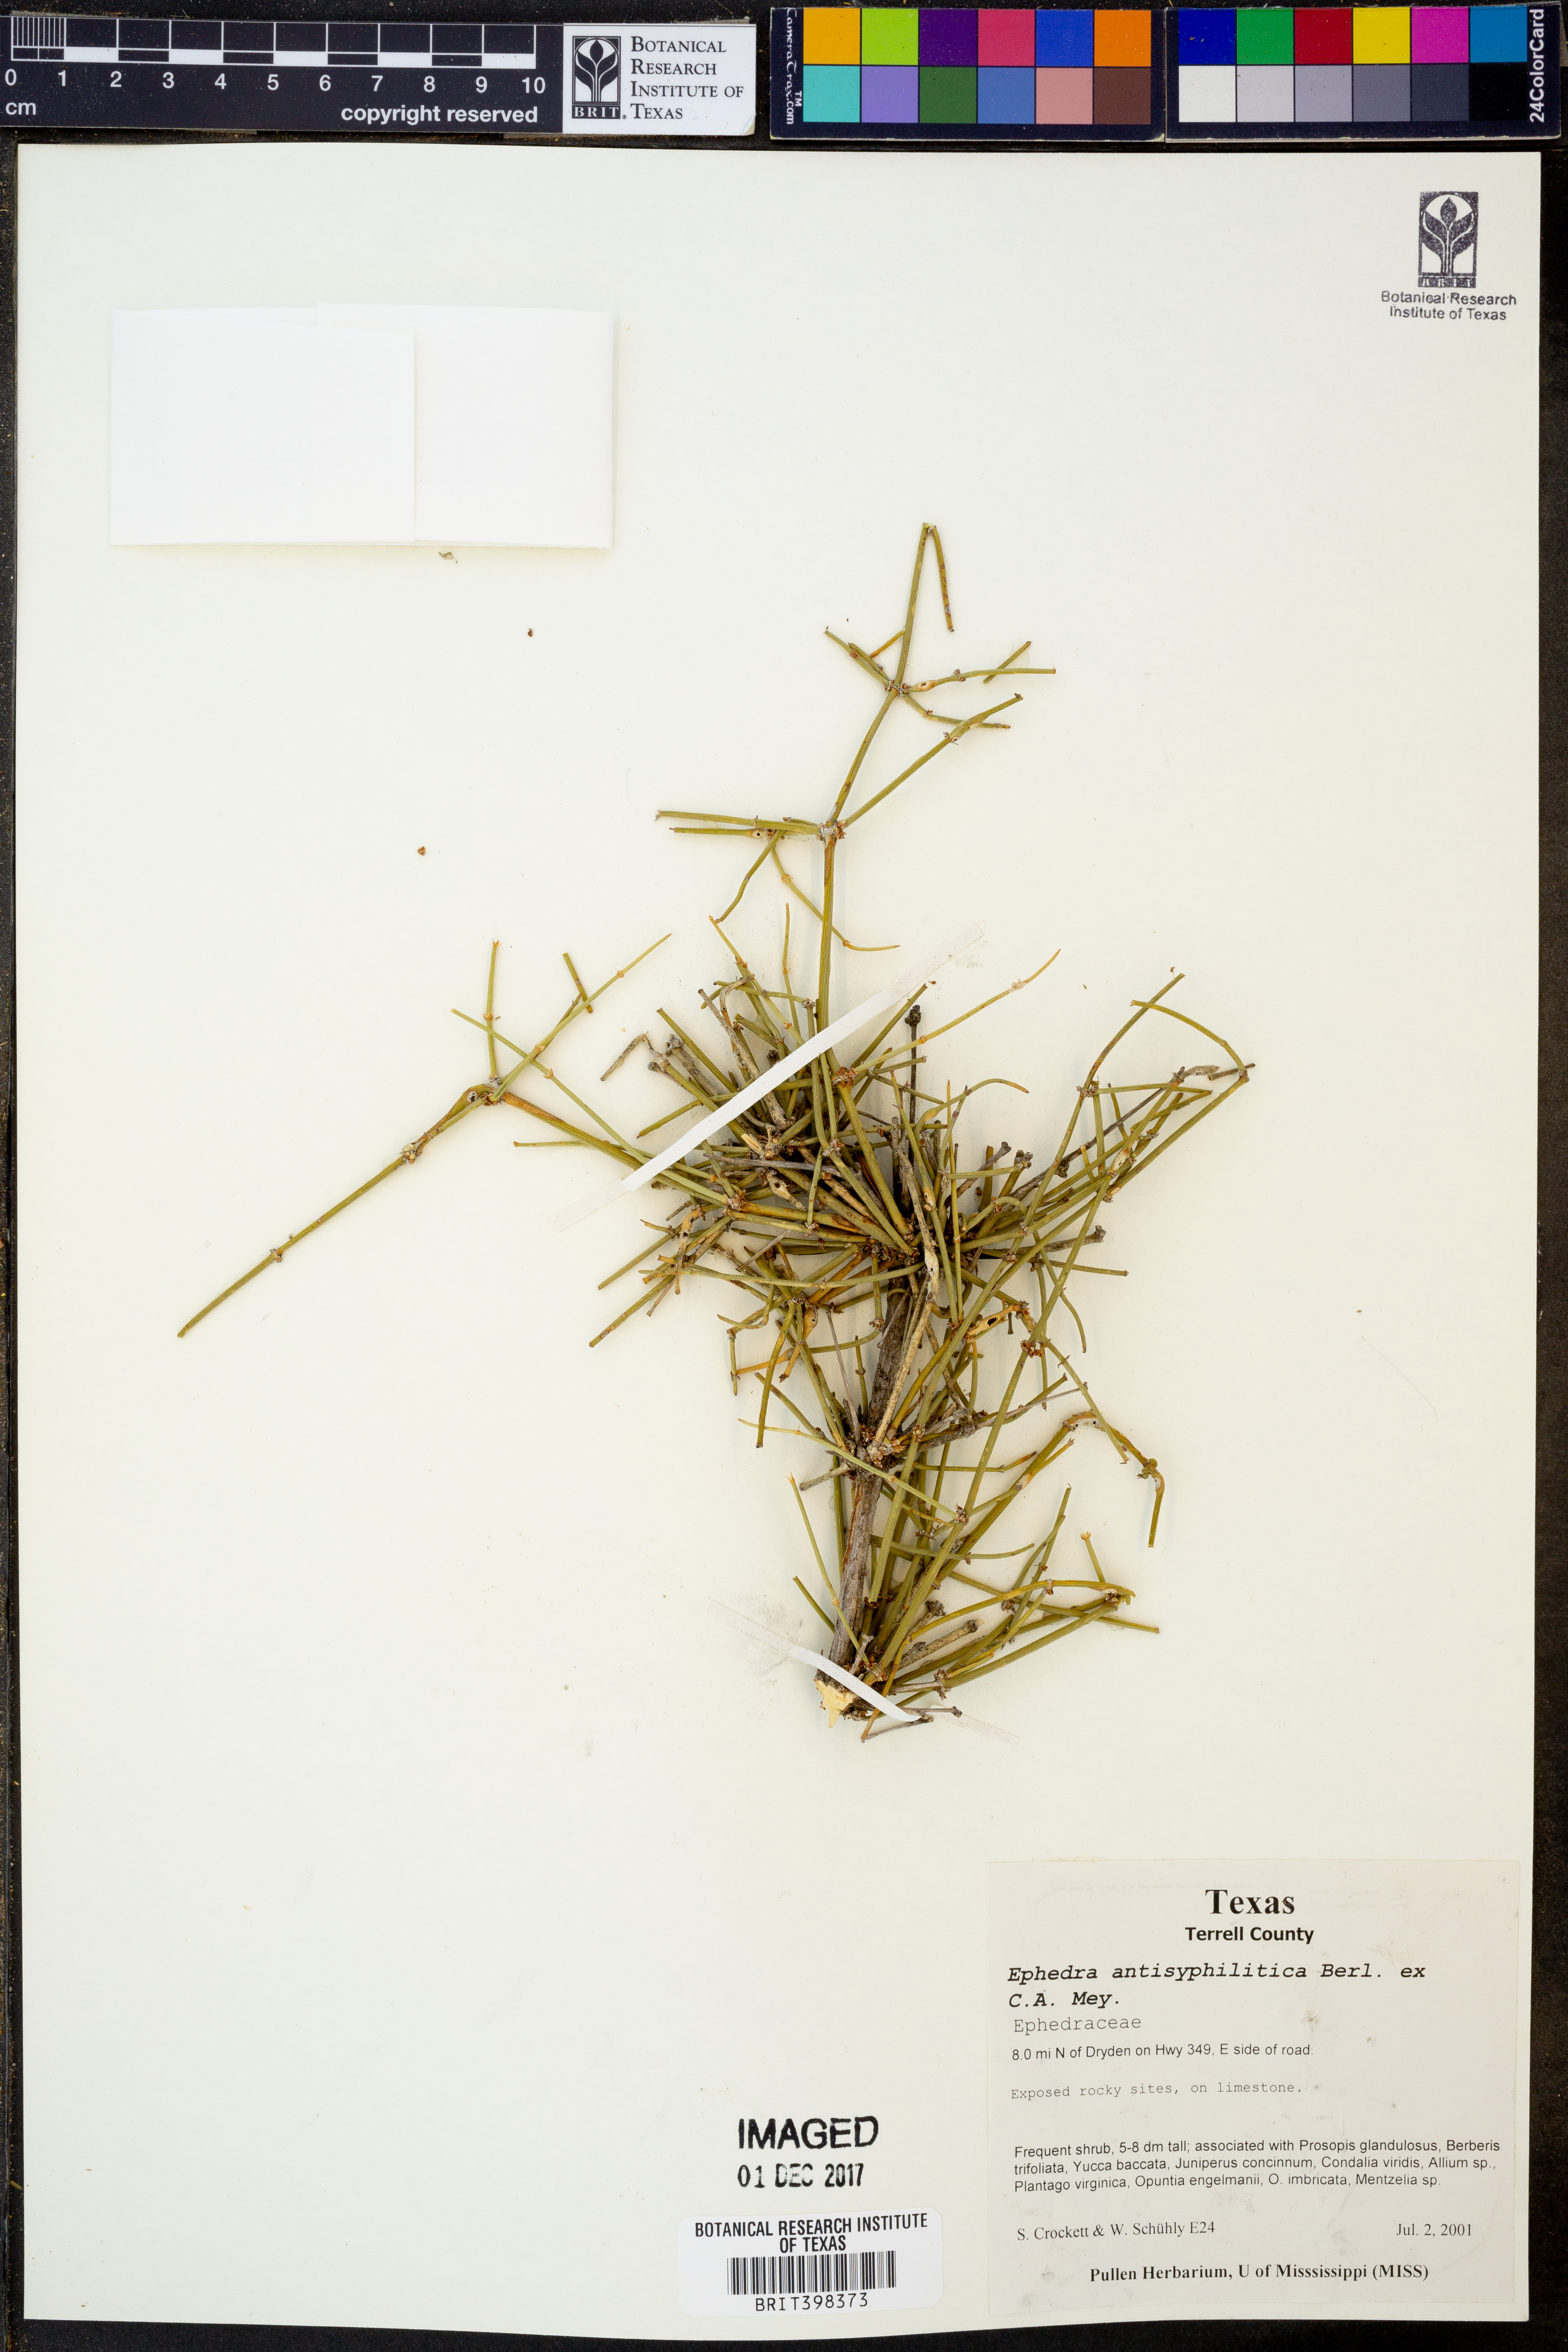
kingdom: Plantae
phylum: Tracheophyta
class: Gnetopsida
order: Ephedrales
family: Ephedraceae
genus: Ephedra
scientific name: Ephedra antisyphilitica
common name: Clipweed
